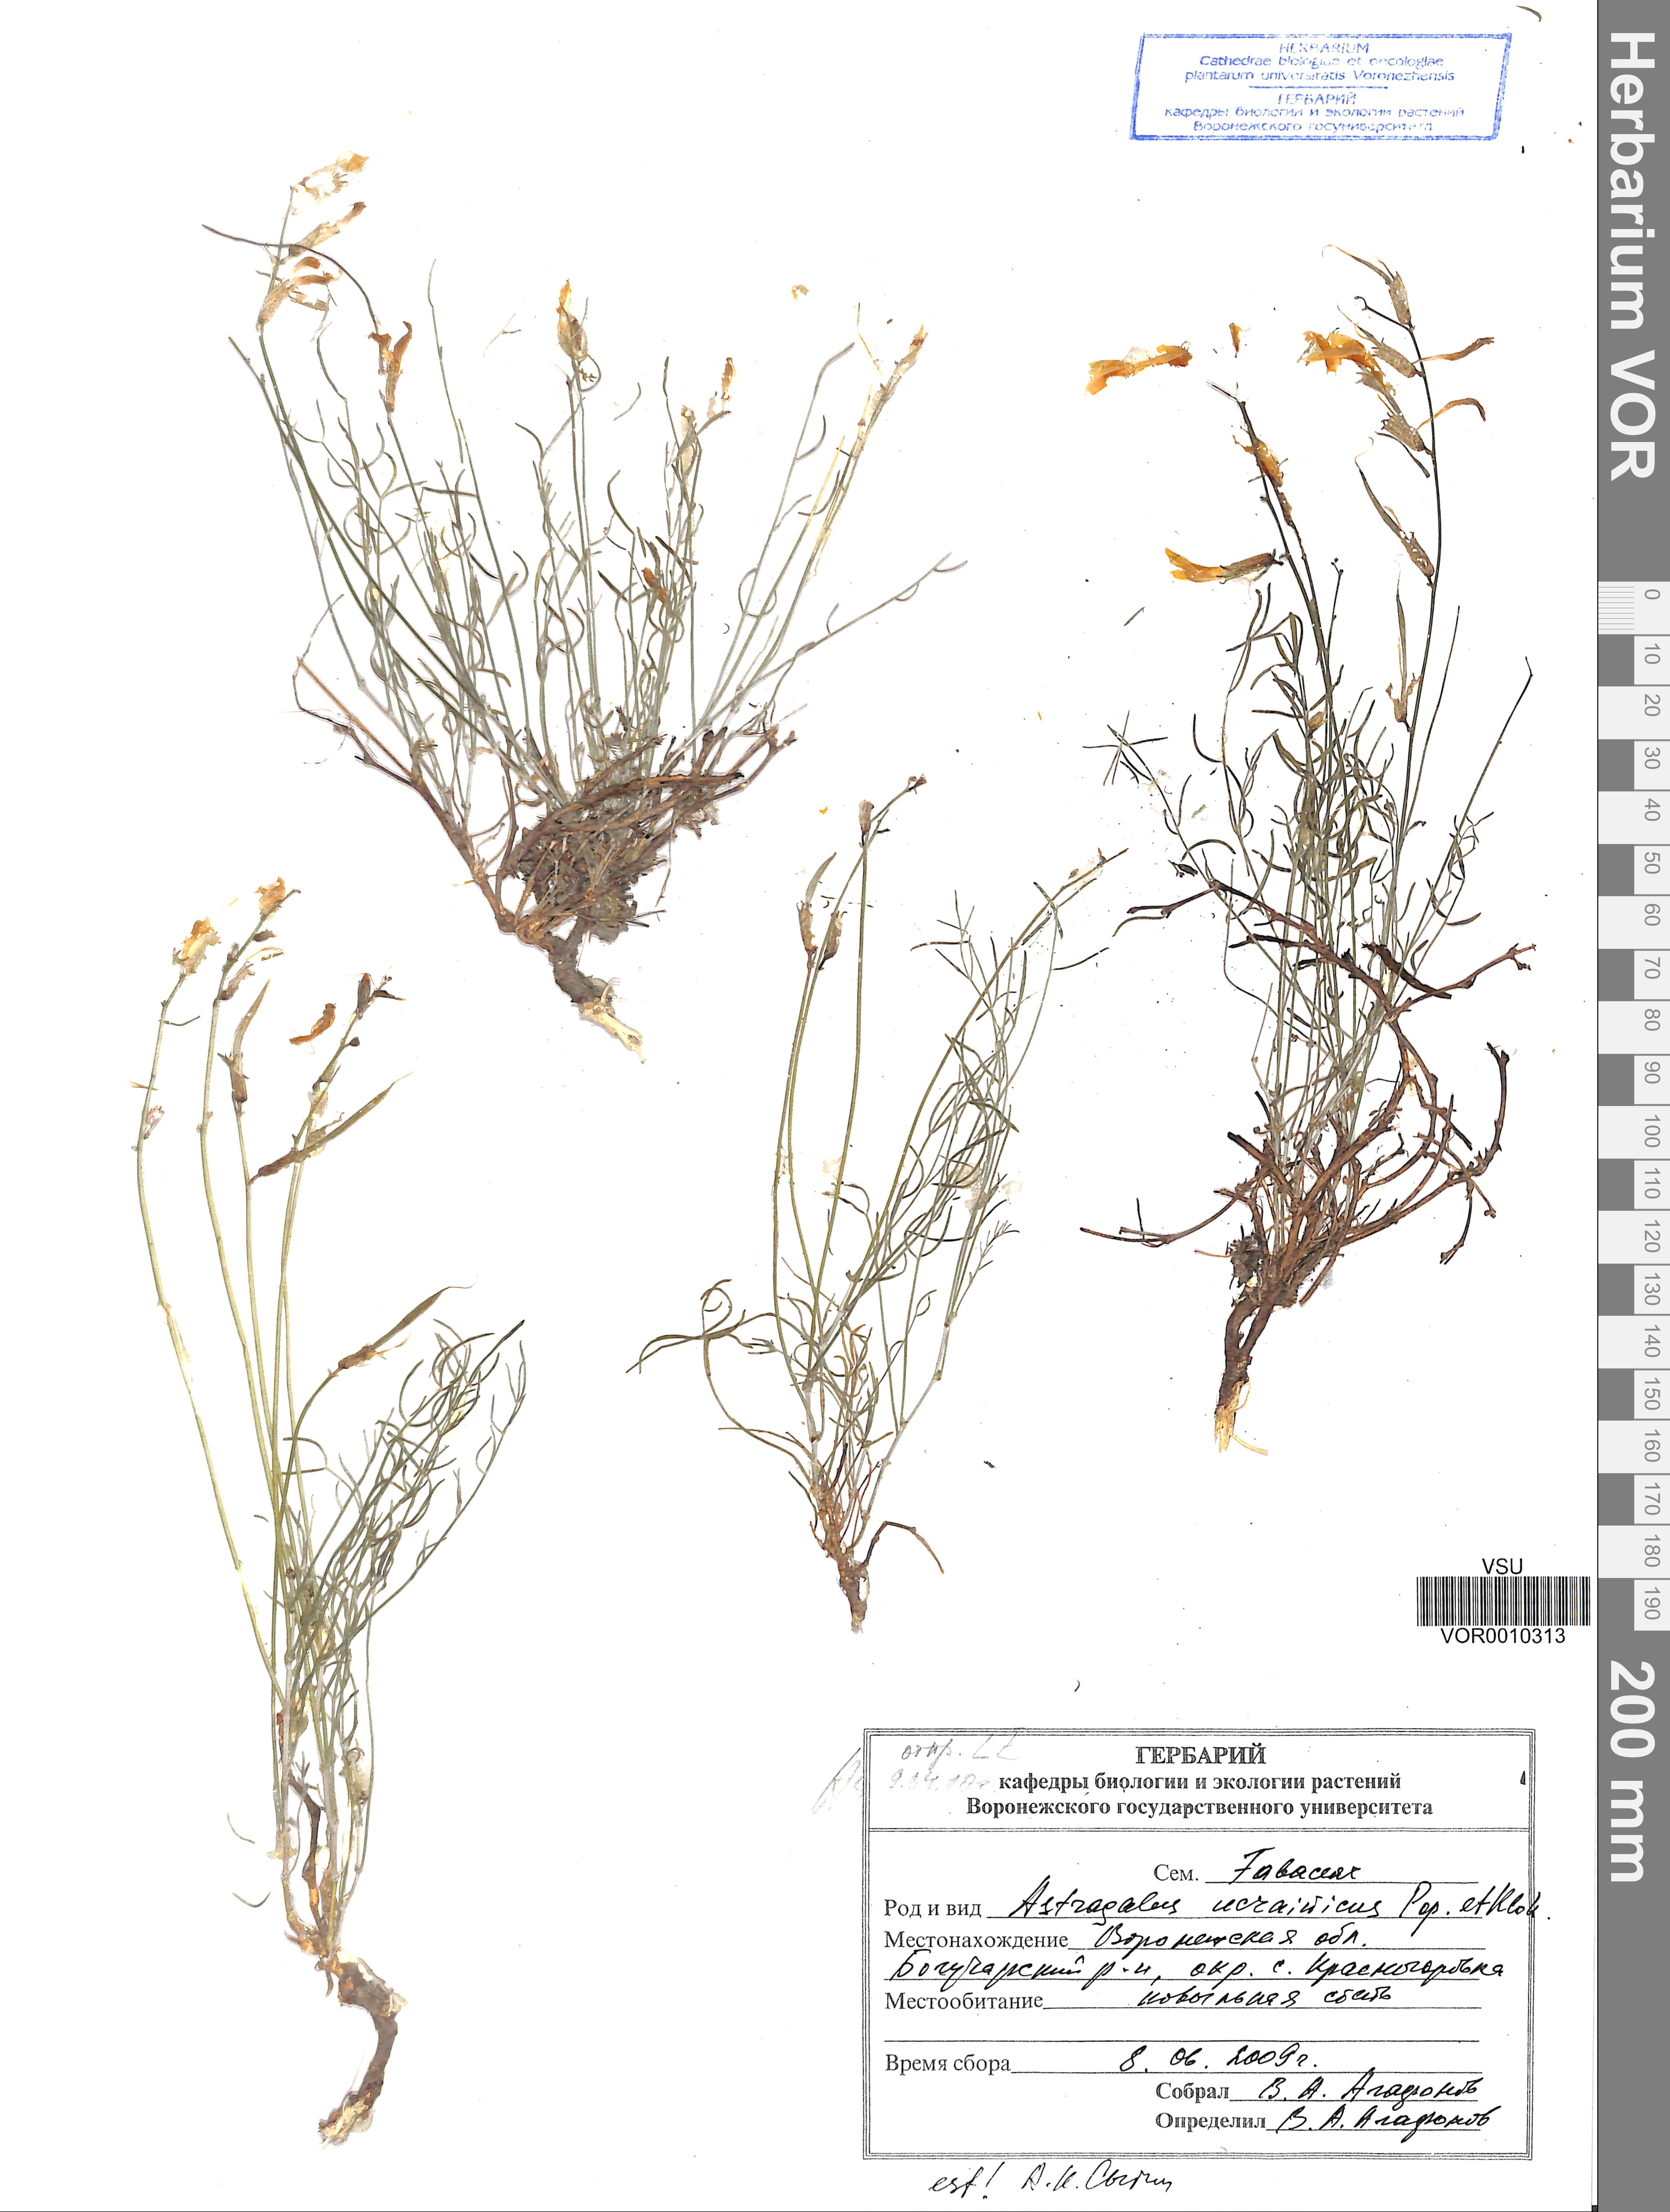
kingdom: Plantae
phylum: Tracheophyta
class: Magnoliopsida
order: Fabales
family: Fabaceae
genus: Astragalus
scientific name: Astragalus ucrainicus
